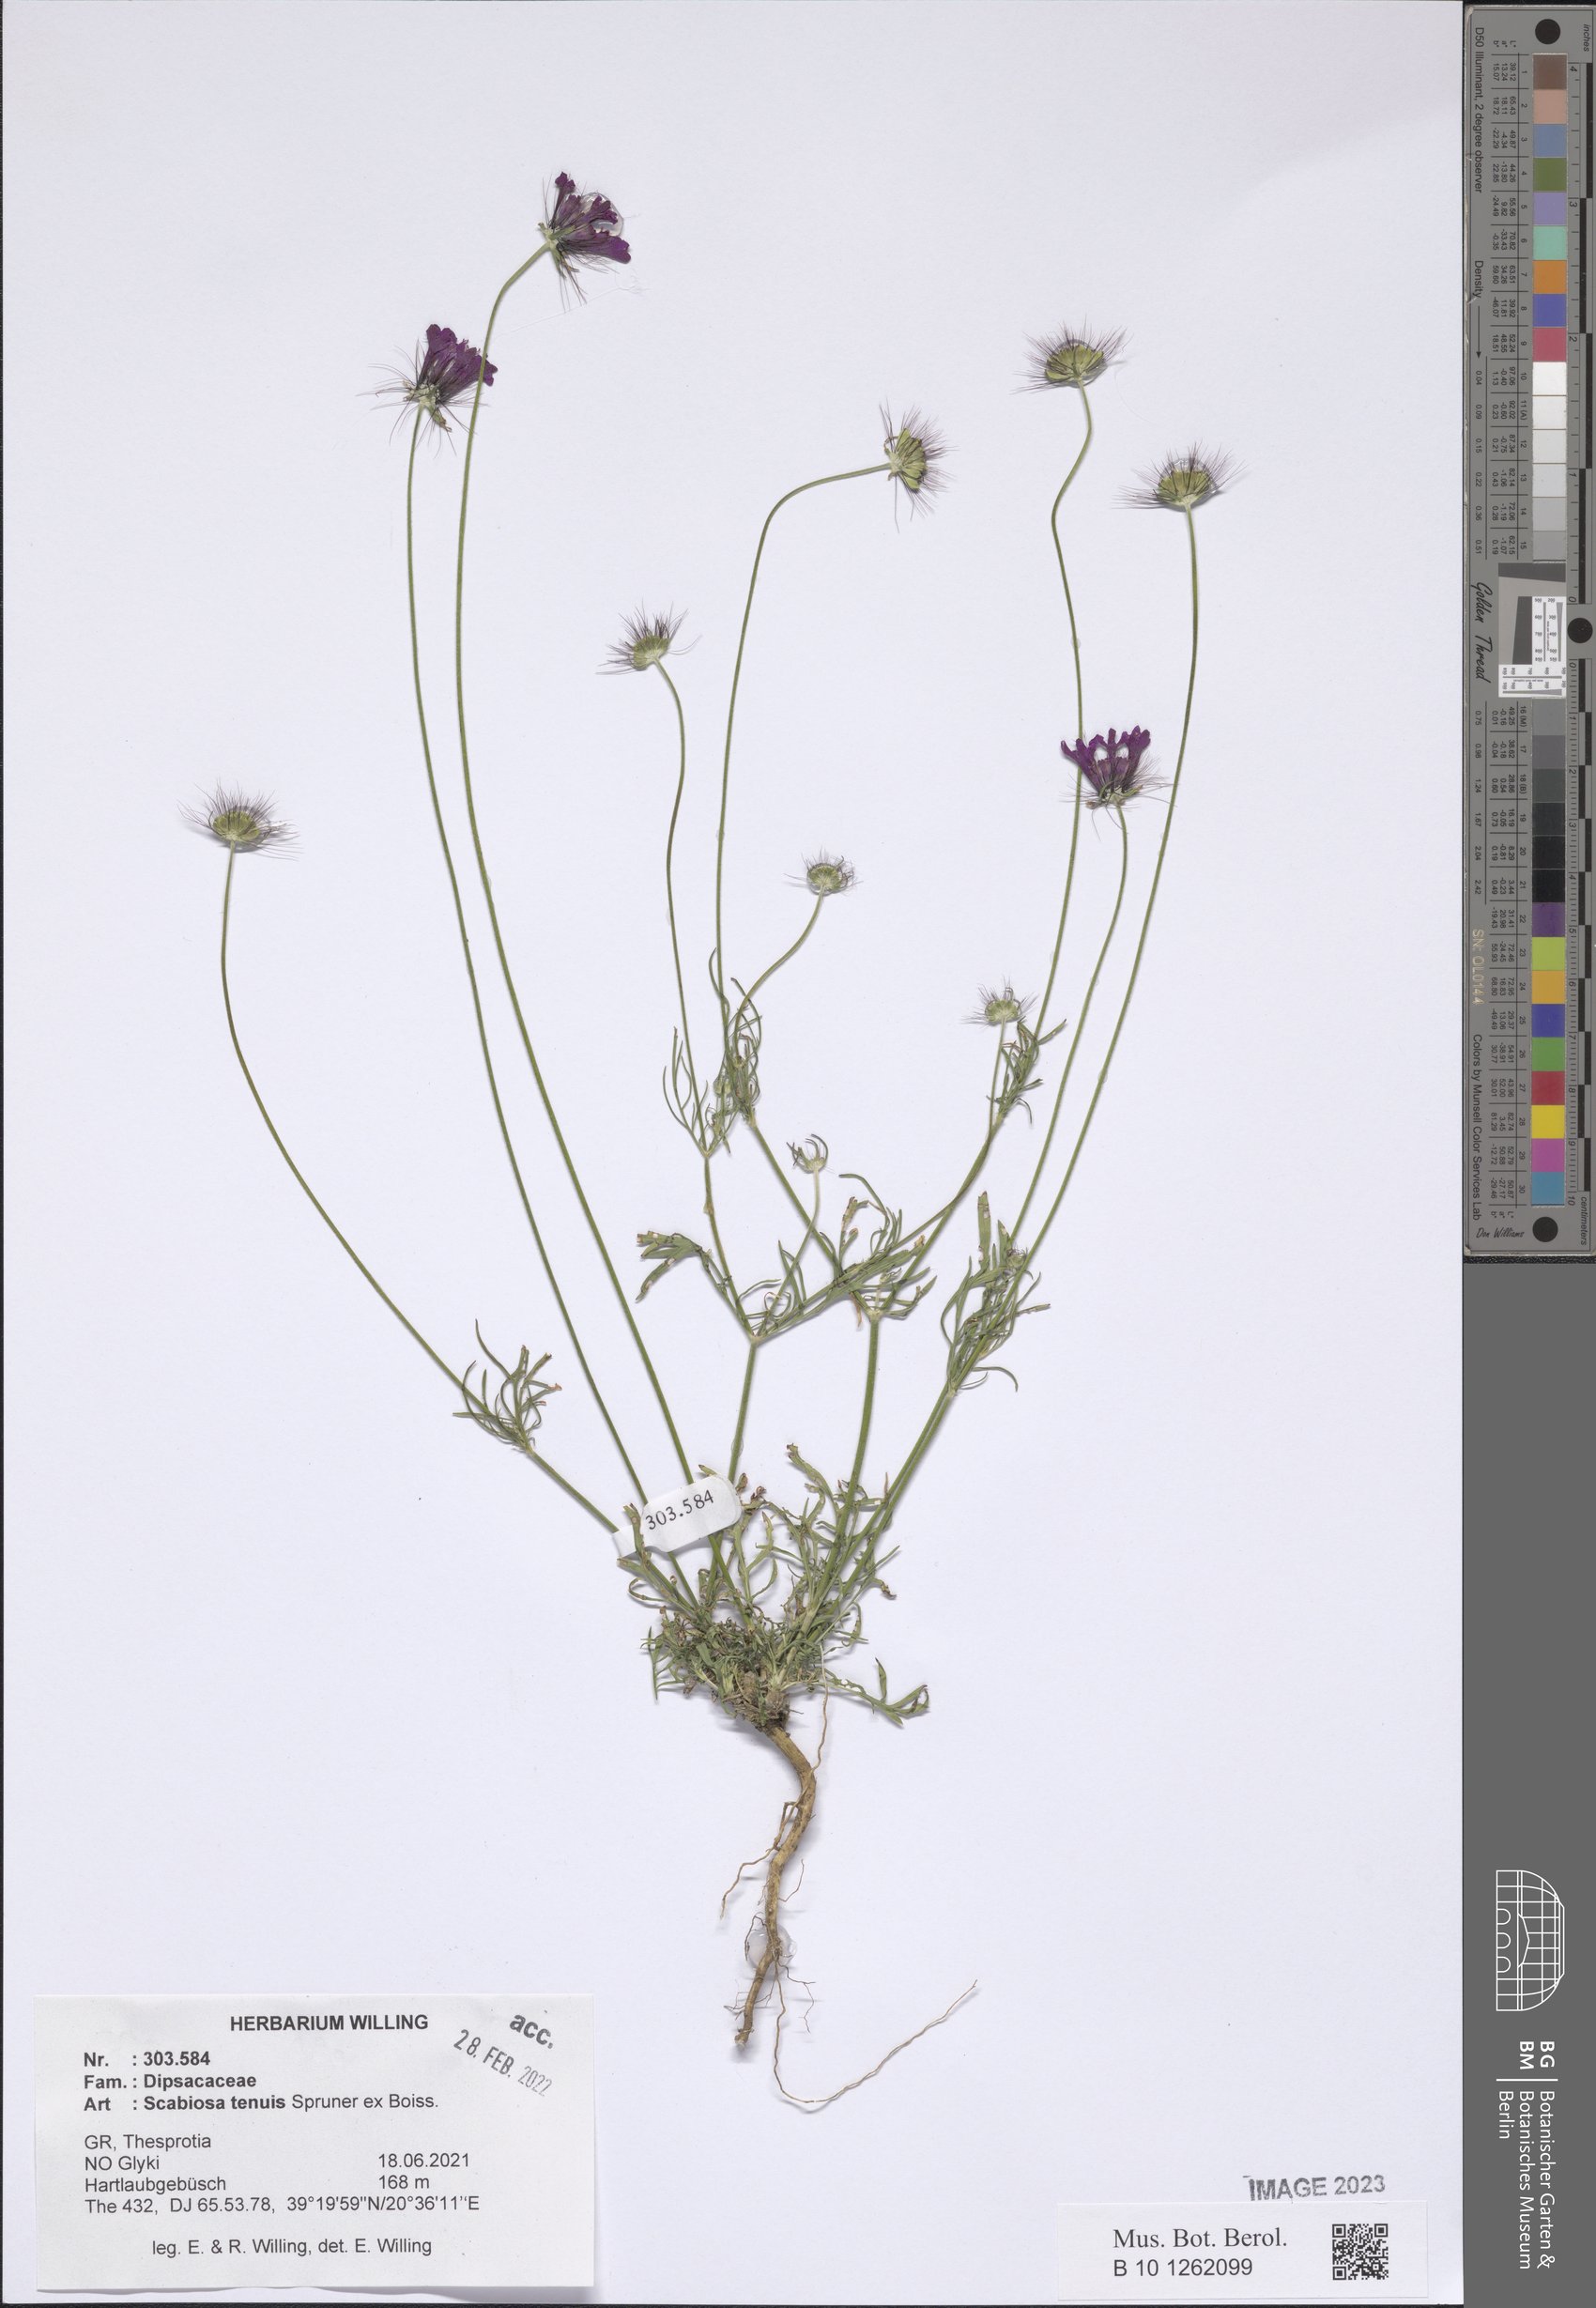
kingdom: Plantae
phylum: Tracheophyta
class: Magnoliopsida
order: Dipsacales
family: Caprifoliaceae
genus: Scabiosa
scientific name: Scabiosa tenuis
